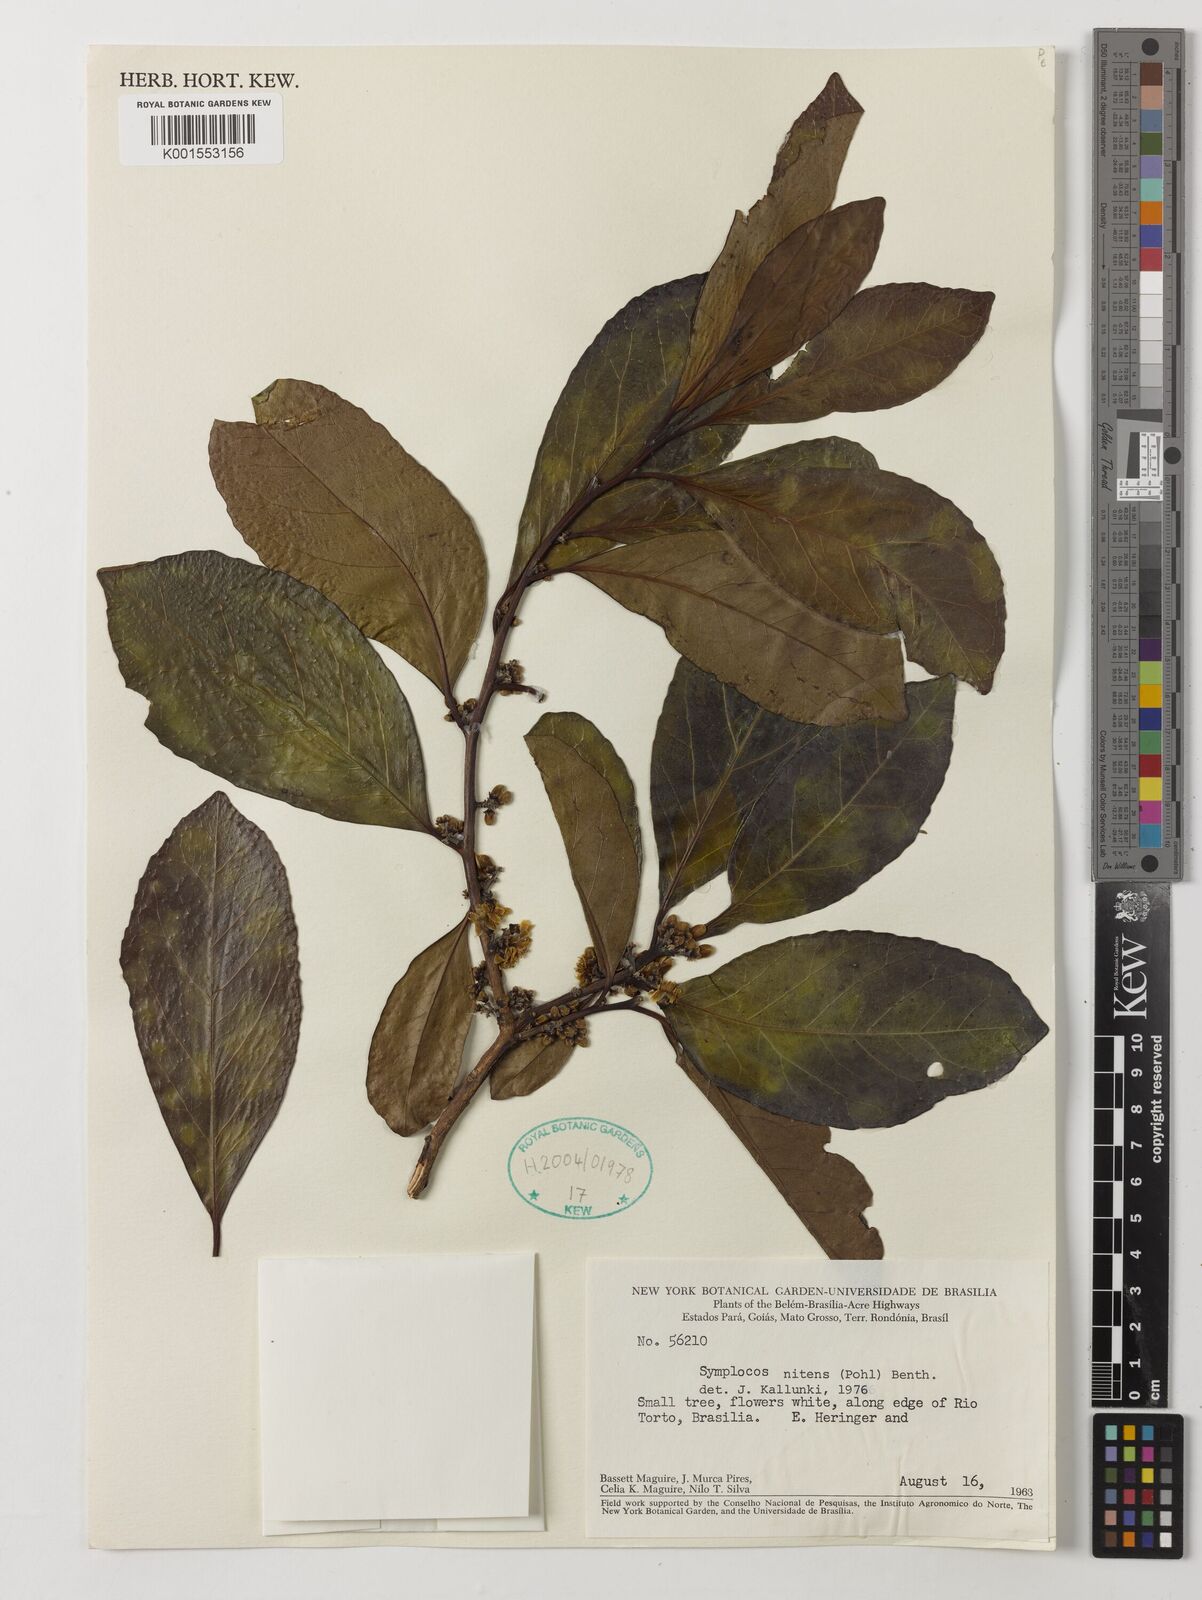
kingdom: Plantae
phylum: Tracheophyta
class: Magnoliopsida
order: Ericales
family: Symplocaceae
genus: Symplocos
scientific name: Symplocos nitens
